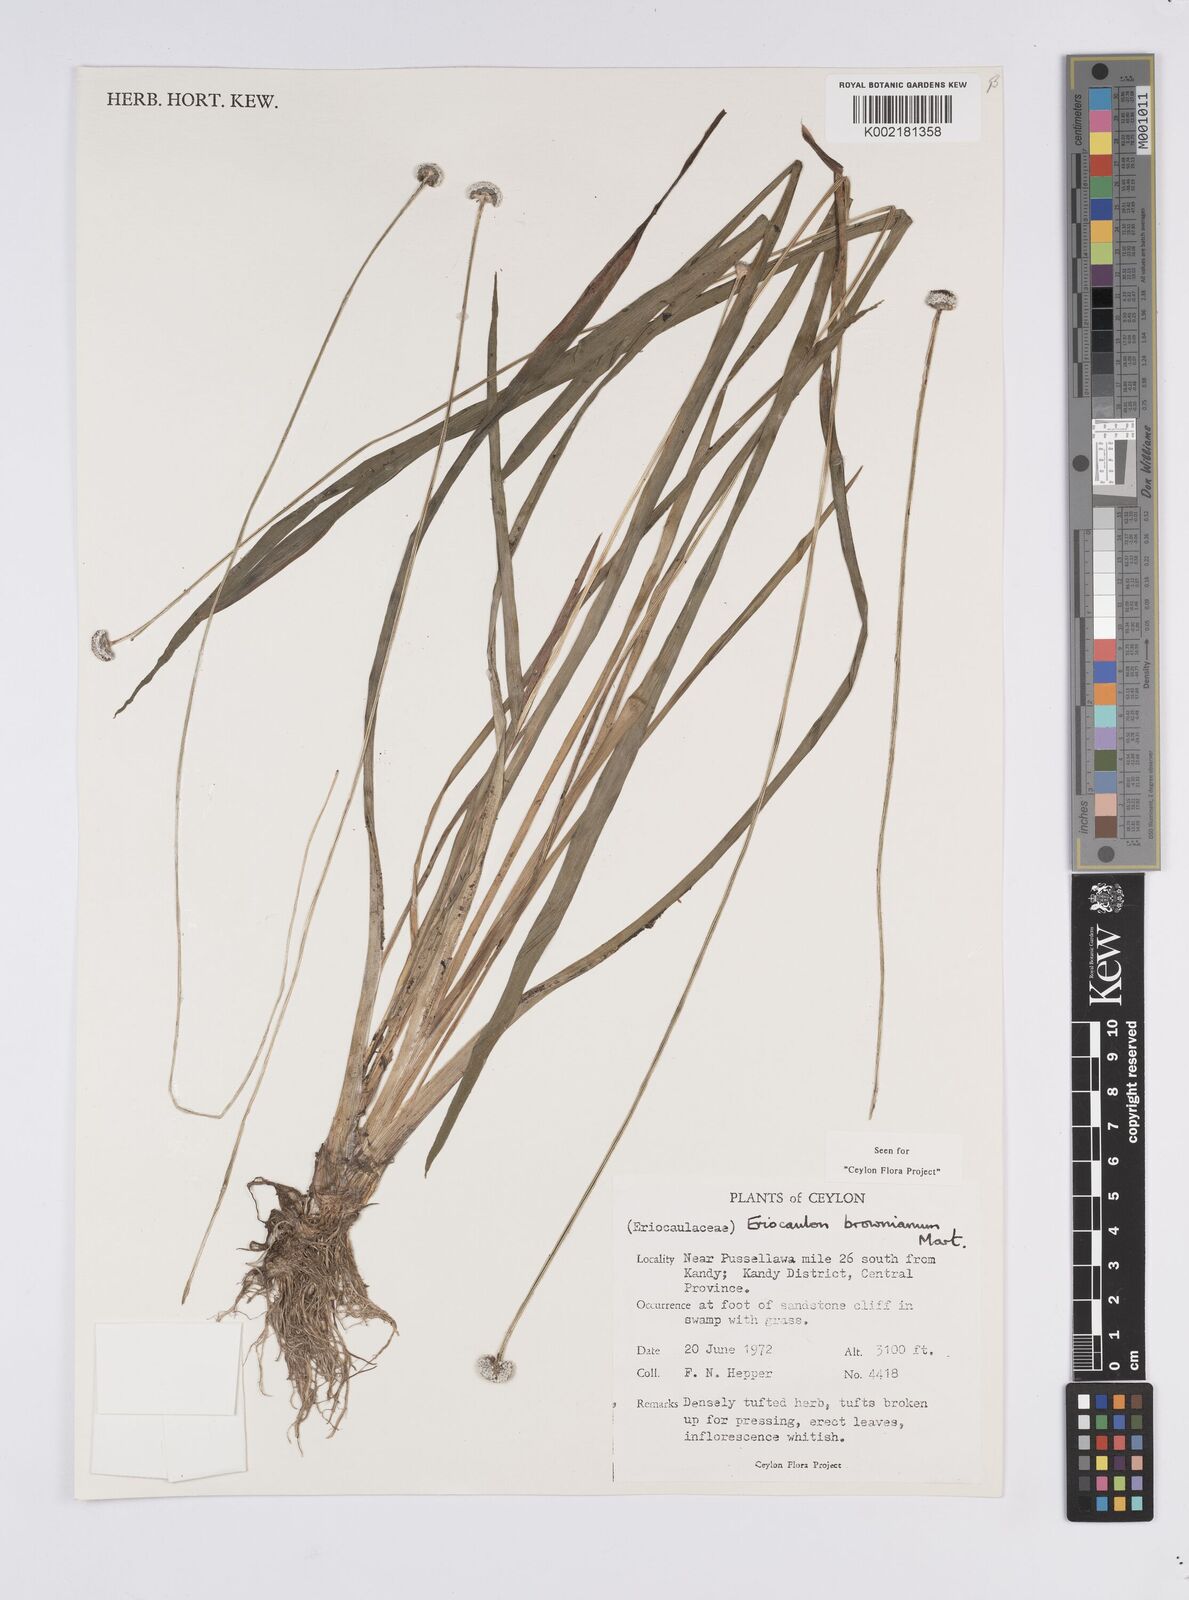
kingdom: Plantae
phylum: Tracheophyta
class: Liliopsida
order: Poales
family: Eriocaulaceae
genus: Eriocaulon
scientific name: Eriocaulon brownianum
